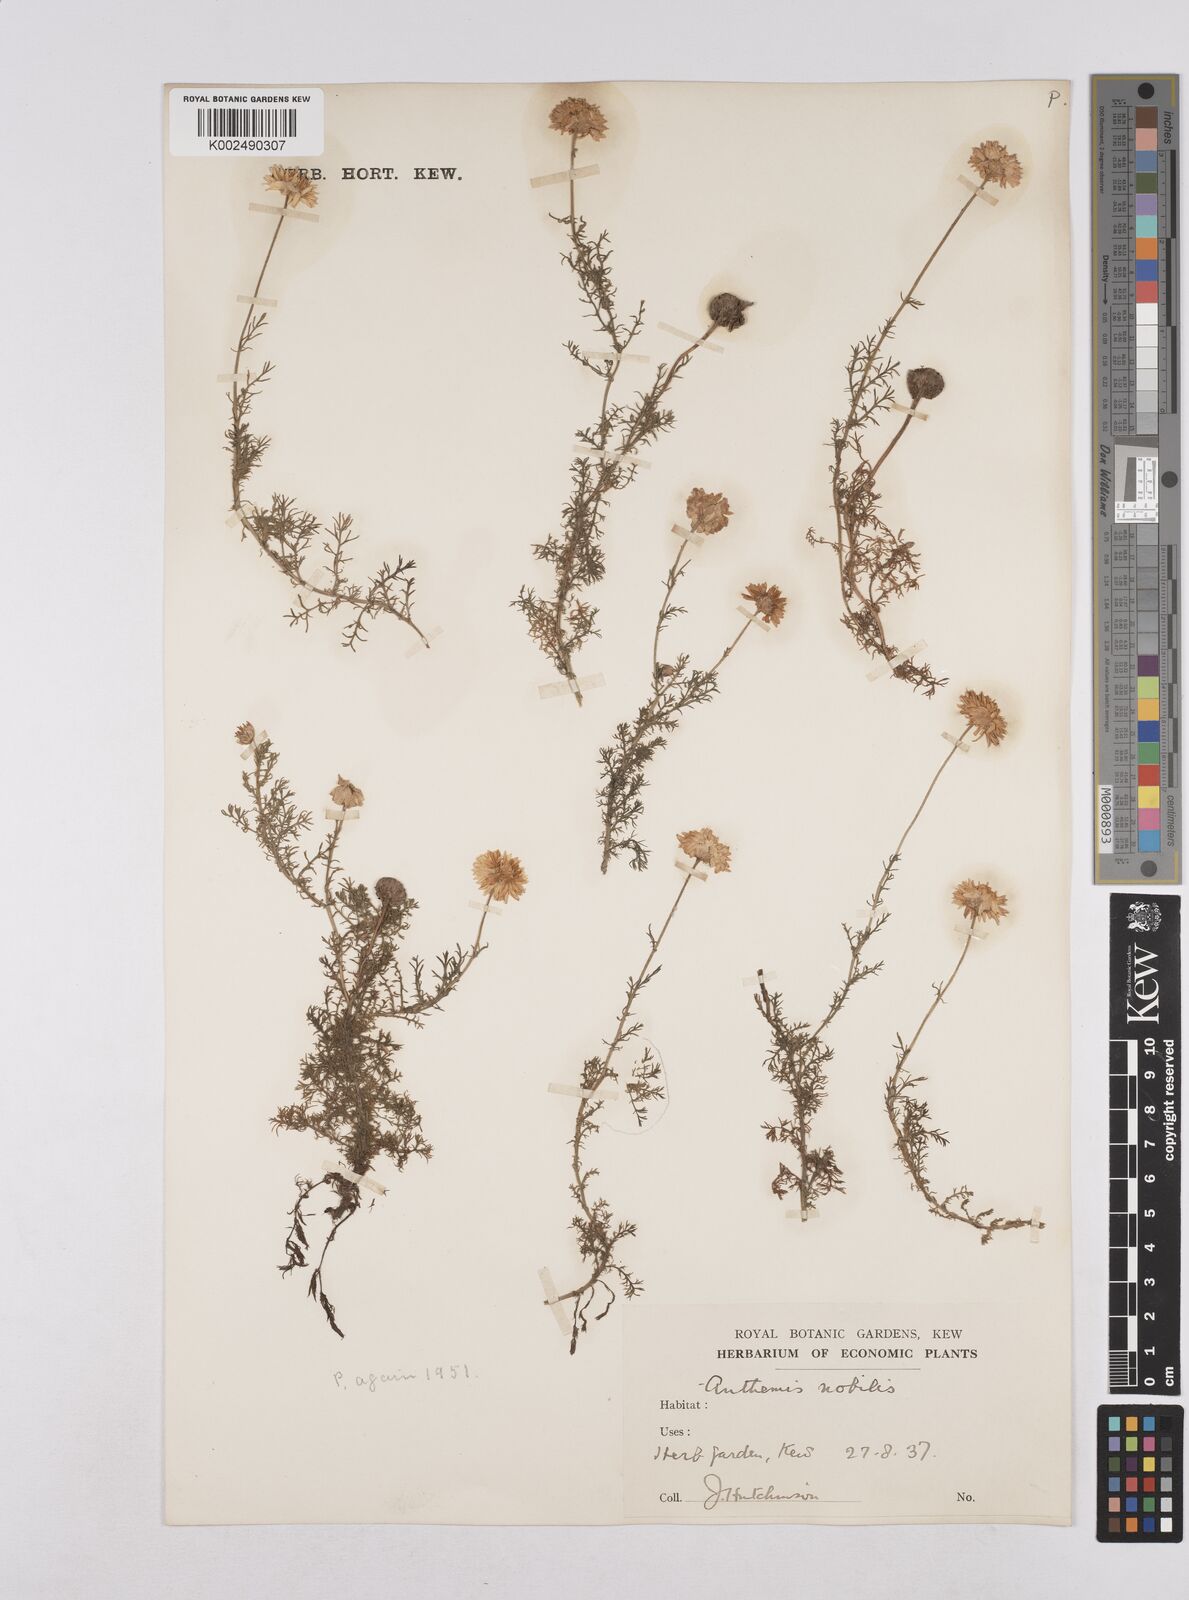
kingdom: Plantae
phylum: Tracheophyta
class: Magnoliopsida
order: Asterales
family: Asteraceae
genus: Matricaria
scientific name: Matricaria chamomilla
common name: Scented mayweed
